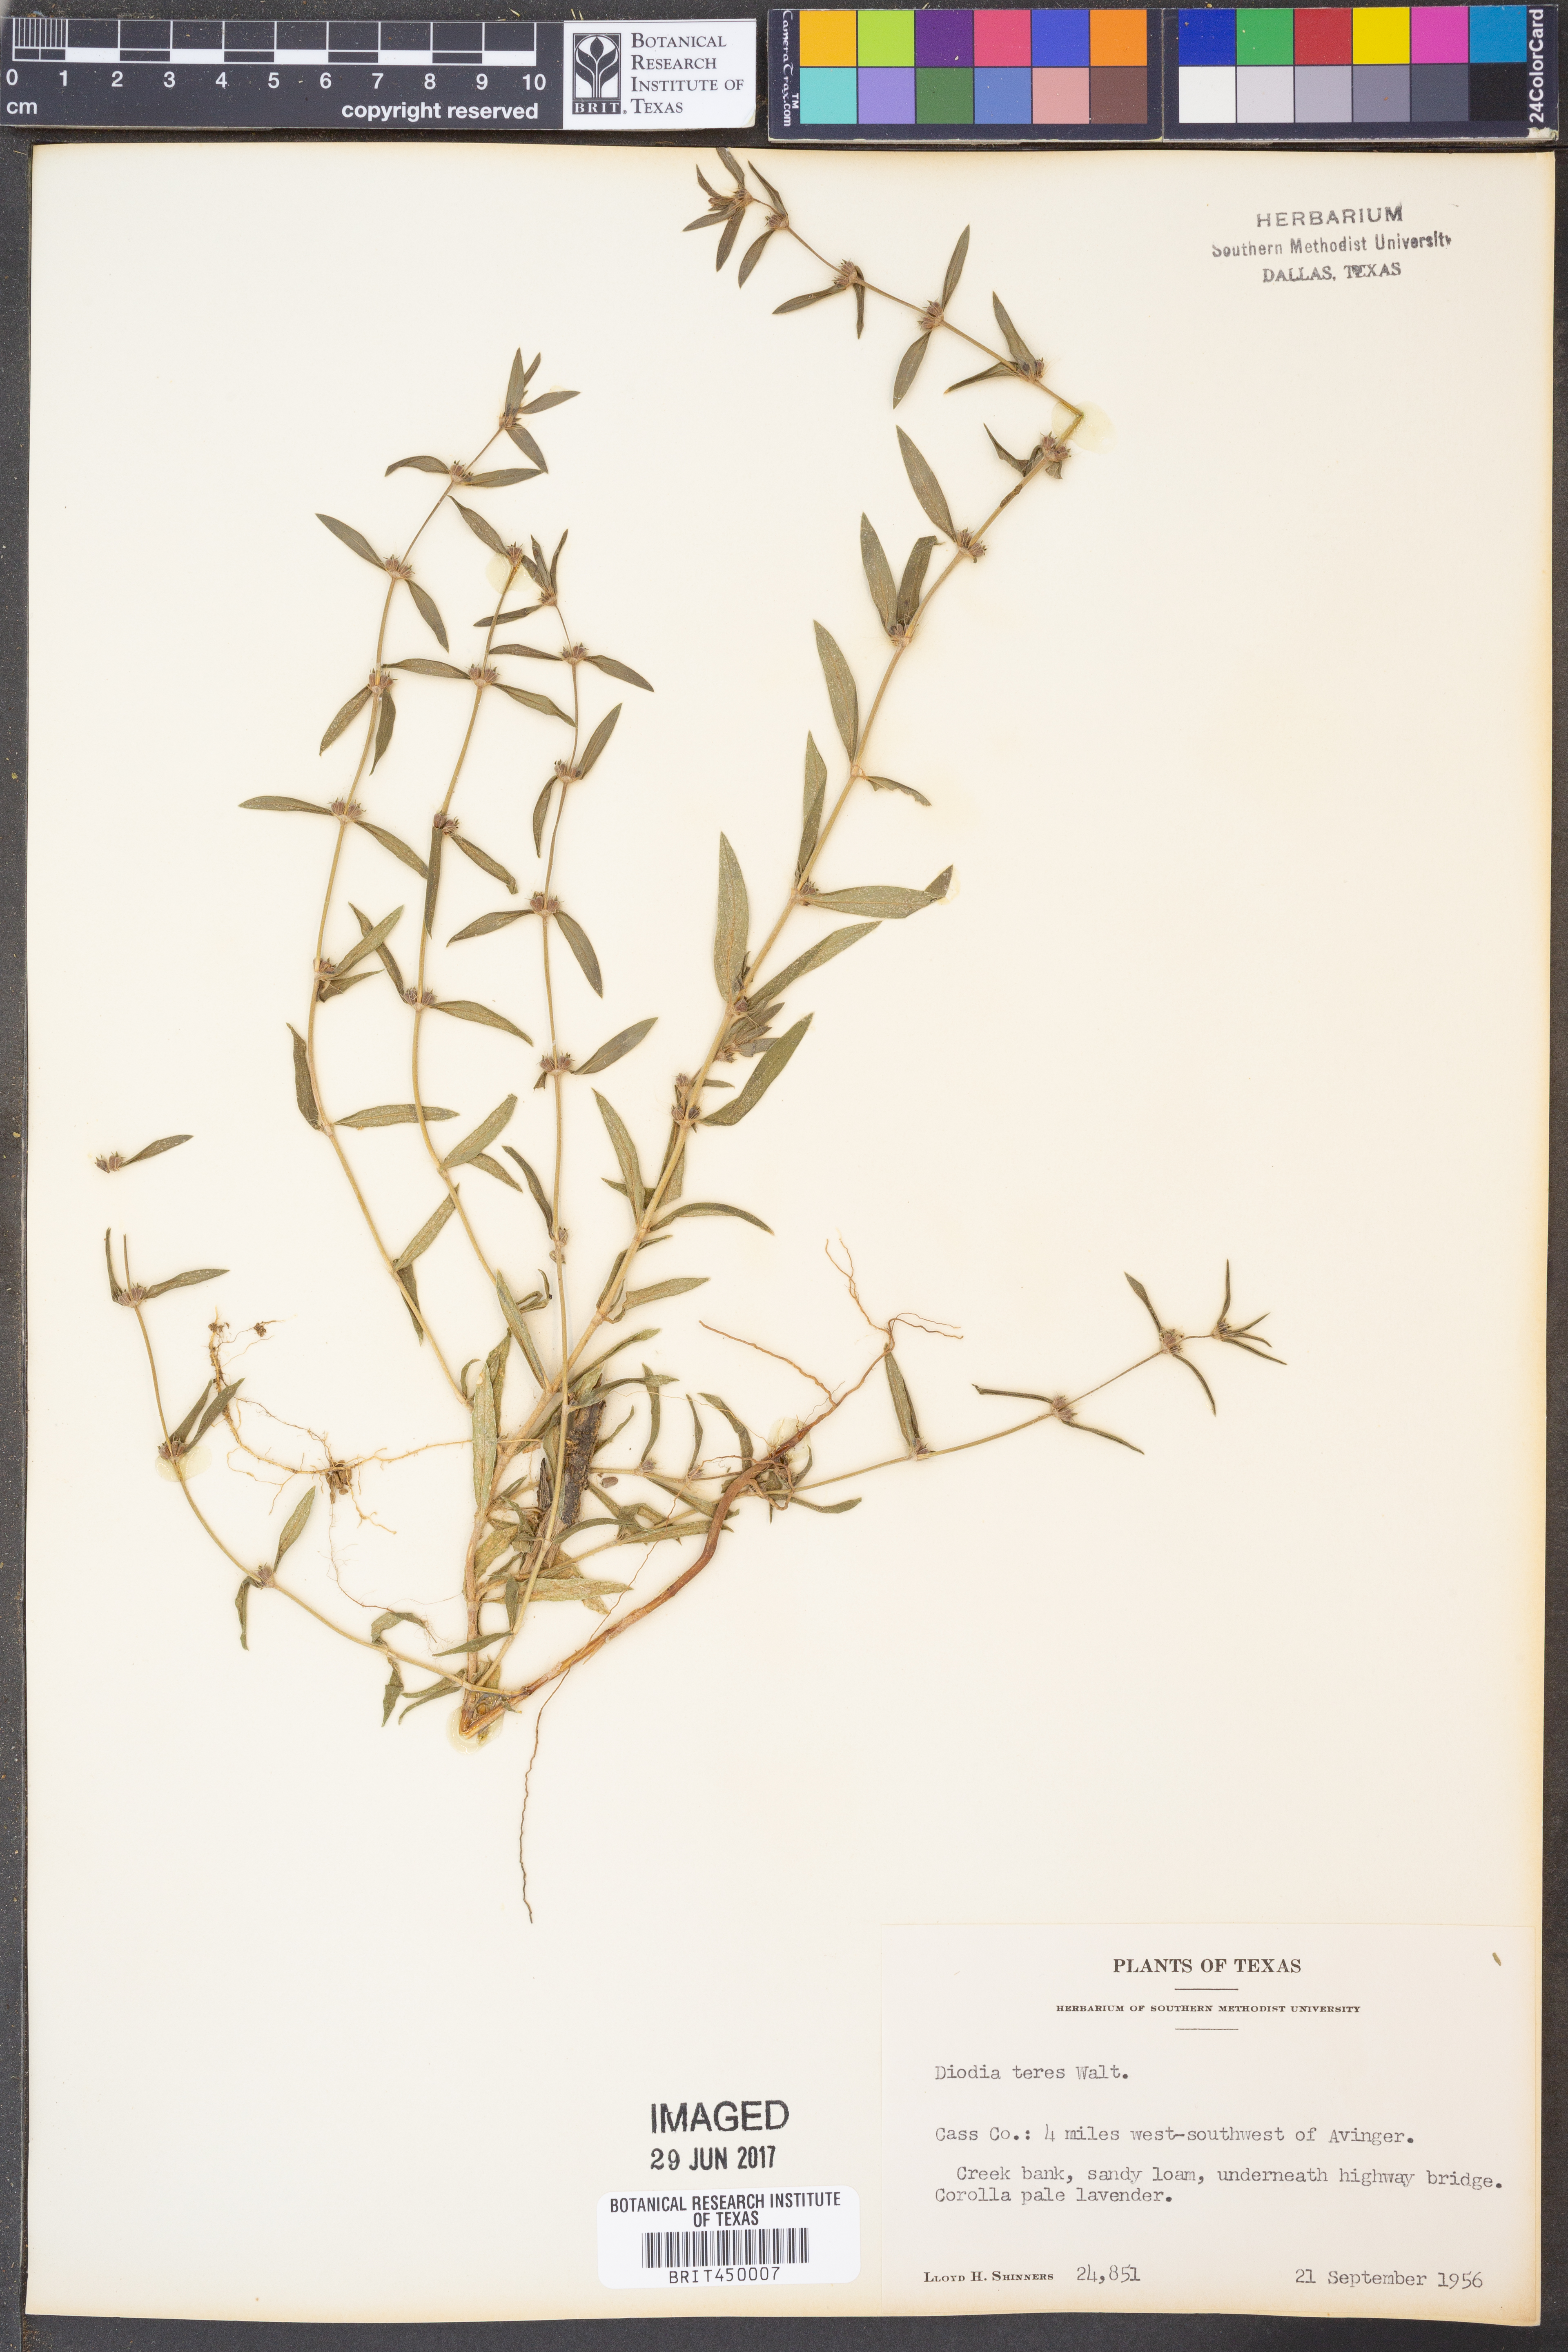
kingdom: Plantae
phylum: Tracheophyta
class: Magnoliopsida
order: Gentianales
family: Rubiaceae
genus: Hexasepalum
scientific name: Hexasepalum teres
